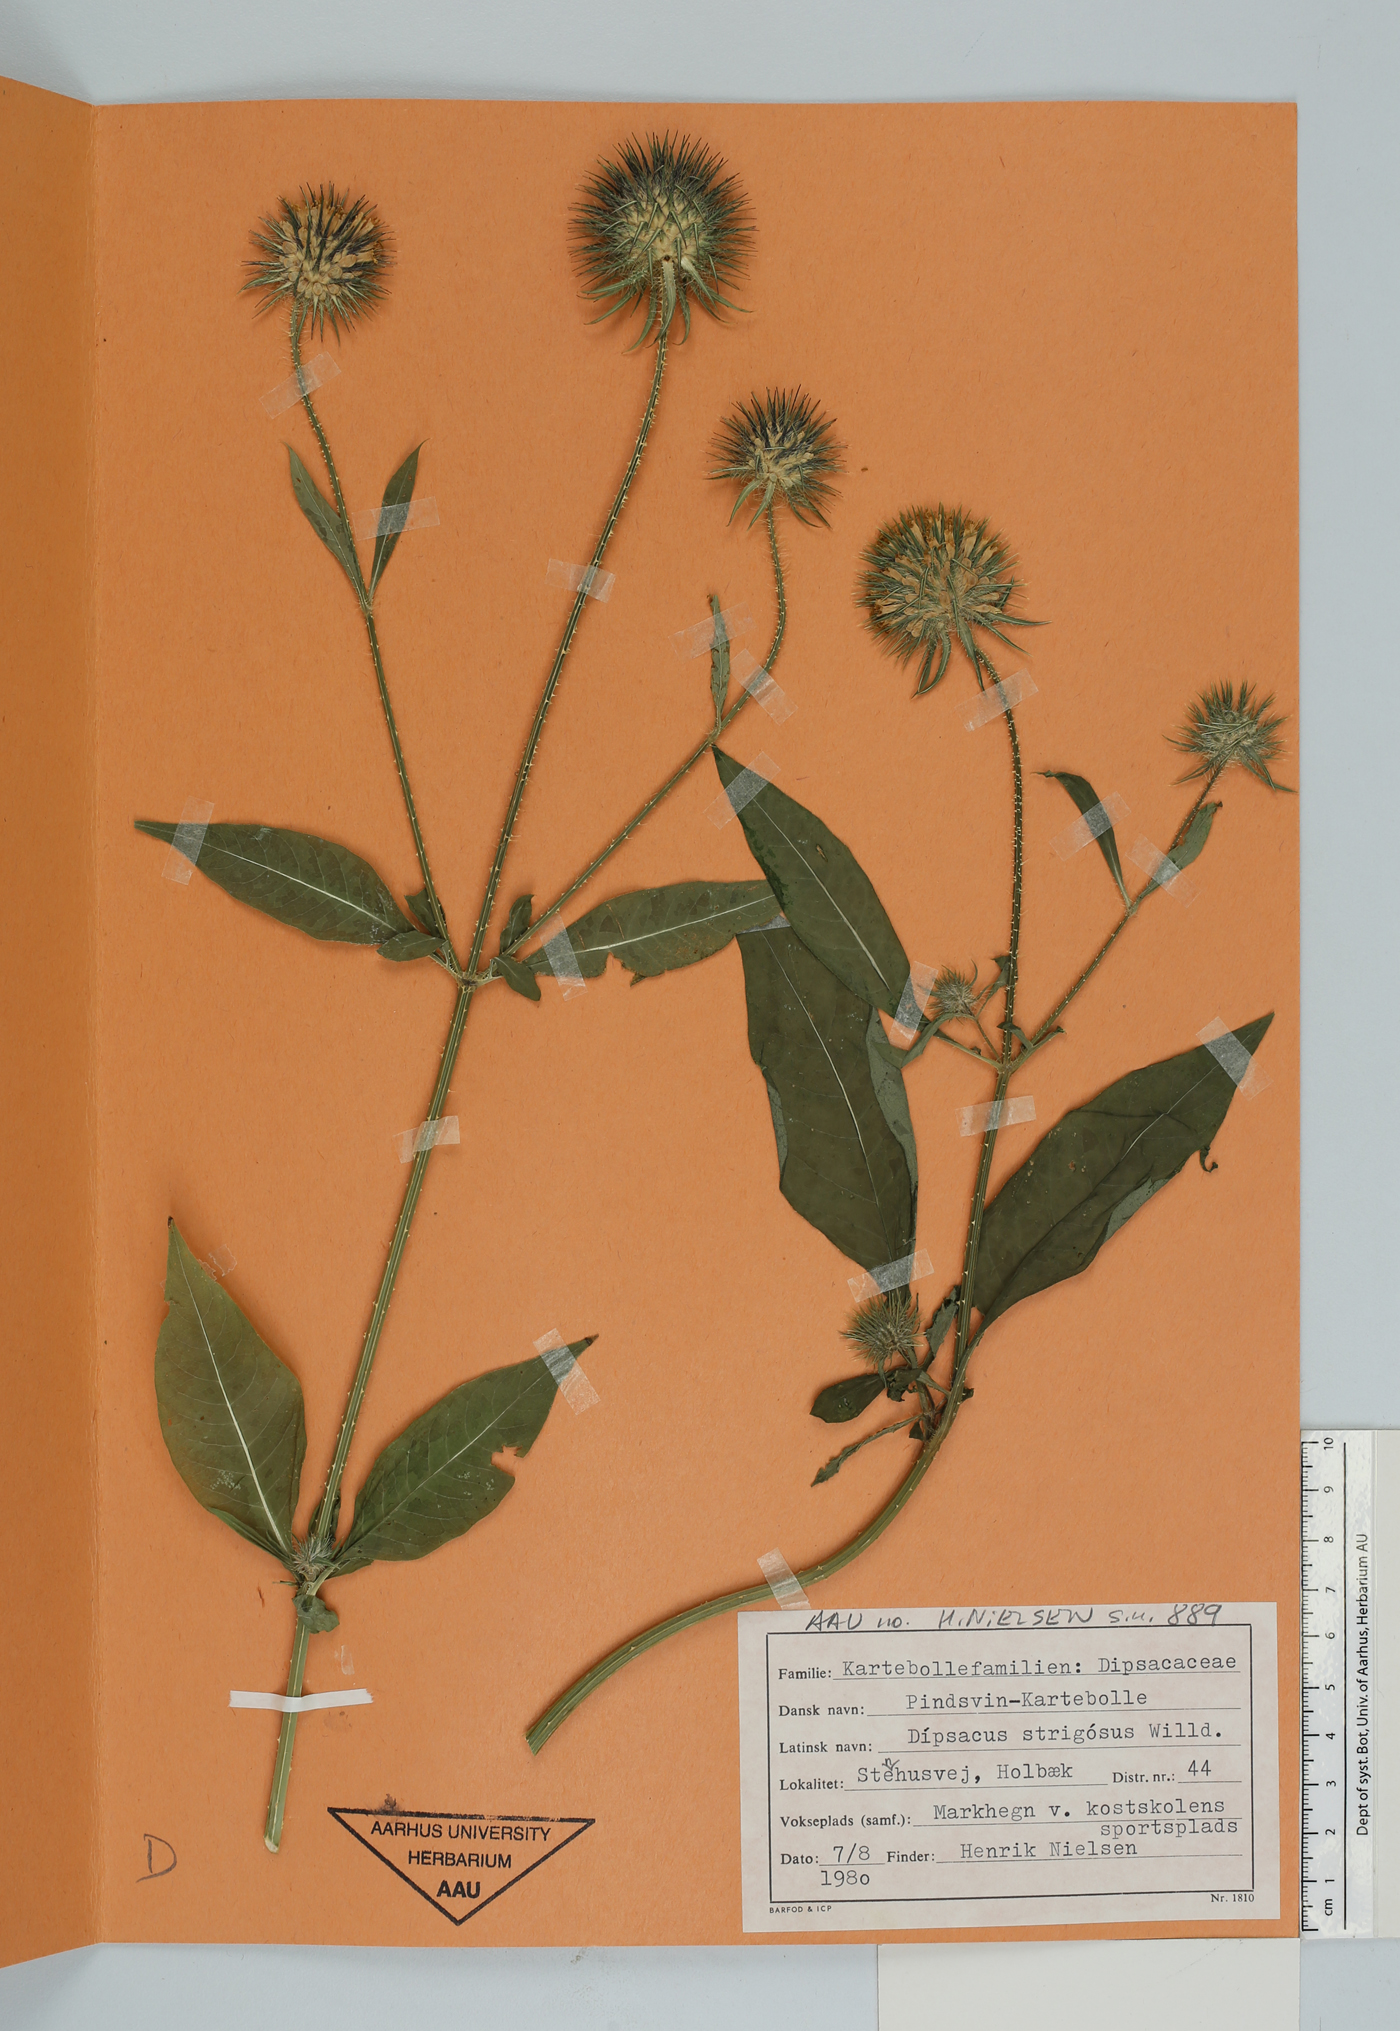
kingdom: Plantae
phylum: Tracheophyta
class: Magnoliopsida
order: Dipsacales
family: Caprifoliaceae
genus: Dipsacus
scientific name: Dipsacus strigosus
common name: Yellow-flowered teasel
